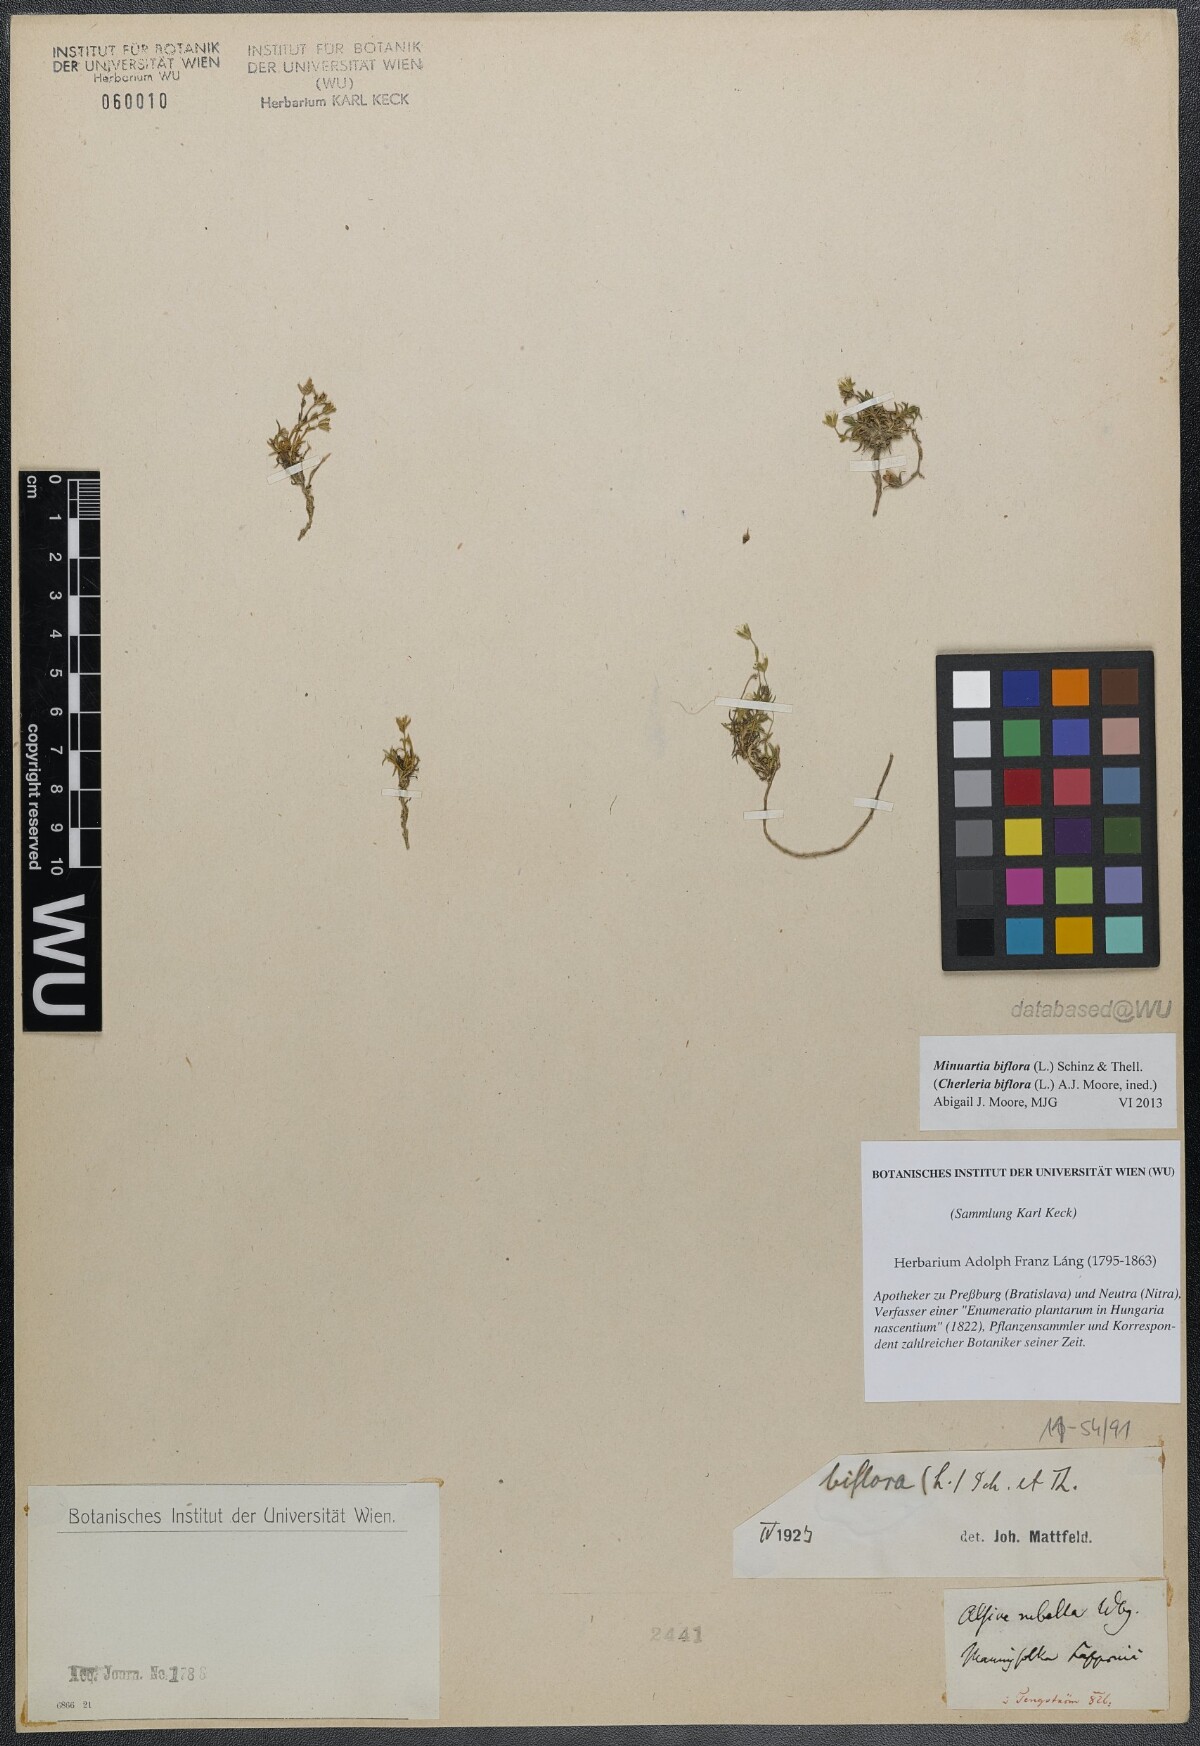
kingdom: Plantae
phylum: Tracheophyta
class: Magnoliopsida
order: Caryophyllales
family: Caryophyllaceae
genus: Cherleria
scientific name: Cherleria biflora
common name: Mountain sandwort
